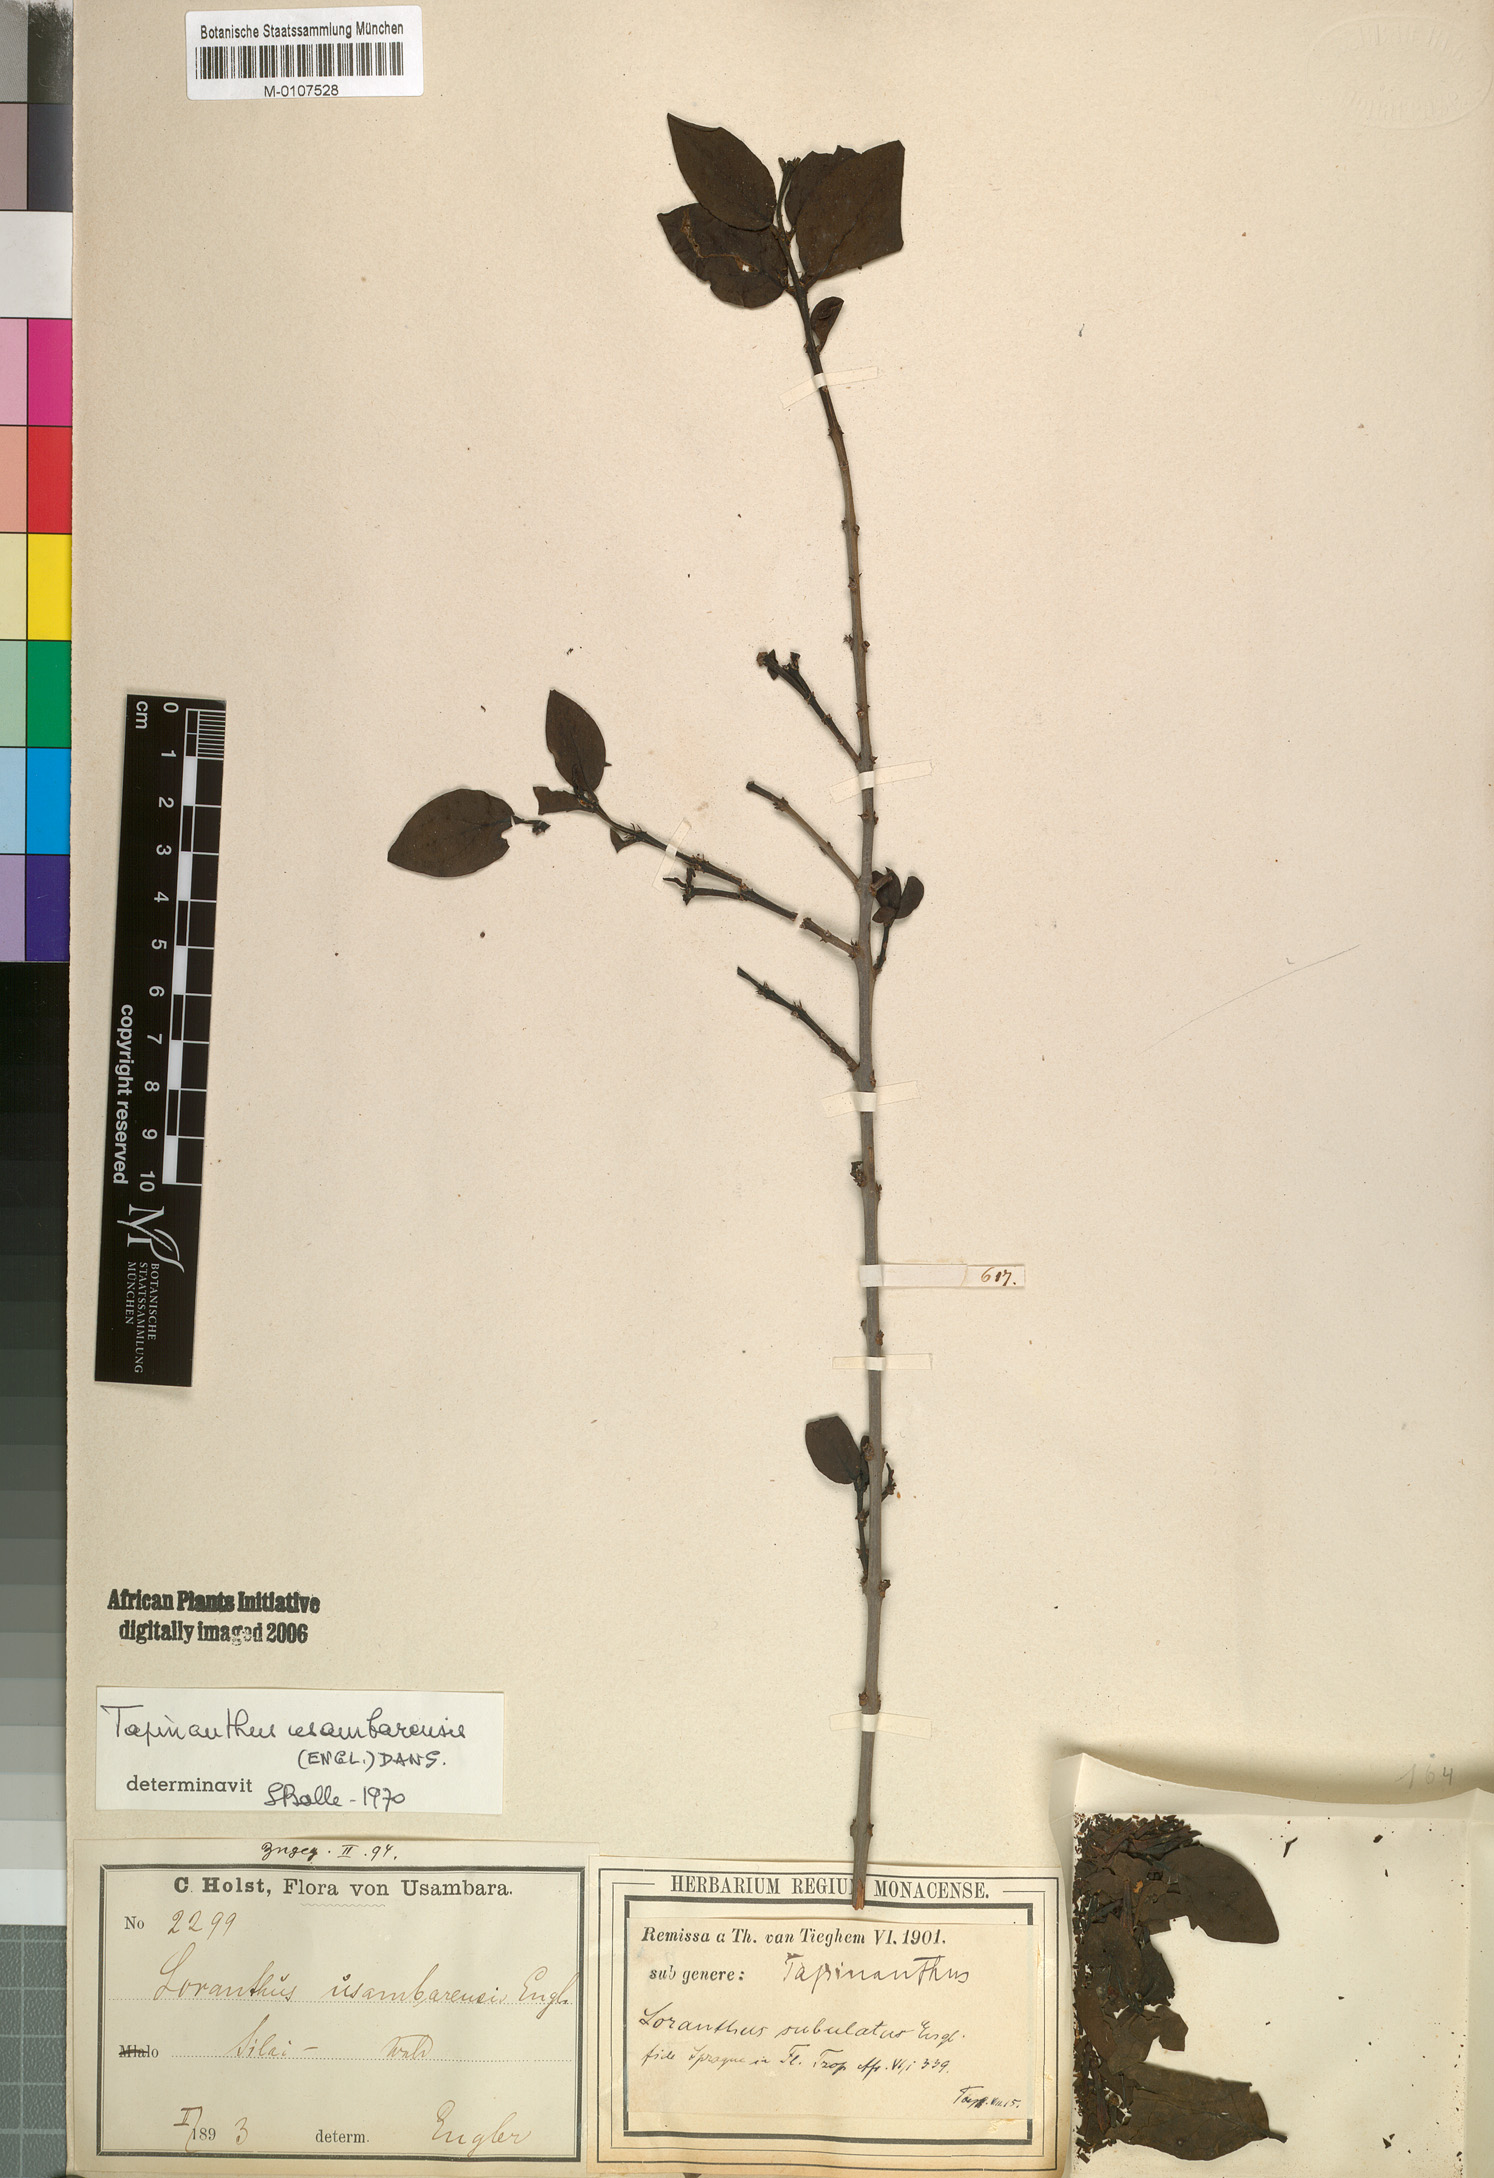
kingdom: Plantae
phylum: Tracheophyta
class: Magnoliopsida
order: Santalales
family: Loranthaceae
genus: Agelanthus
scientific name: Agelanthus subulatus
